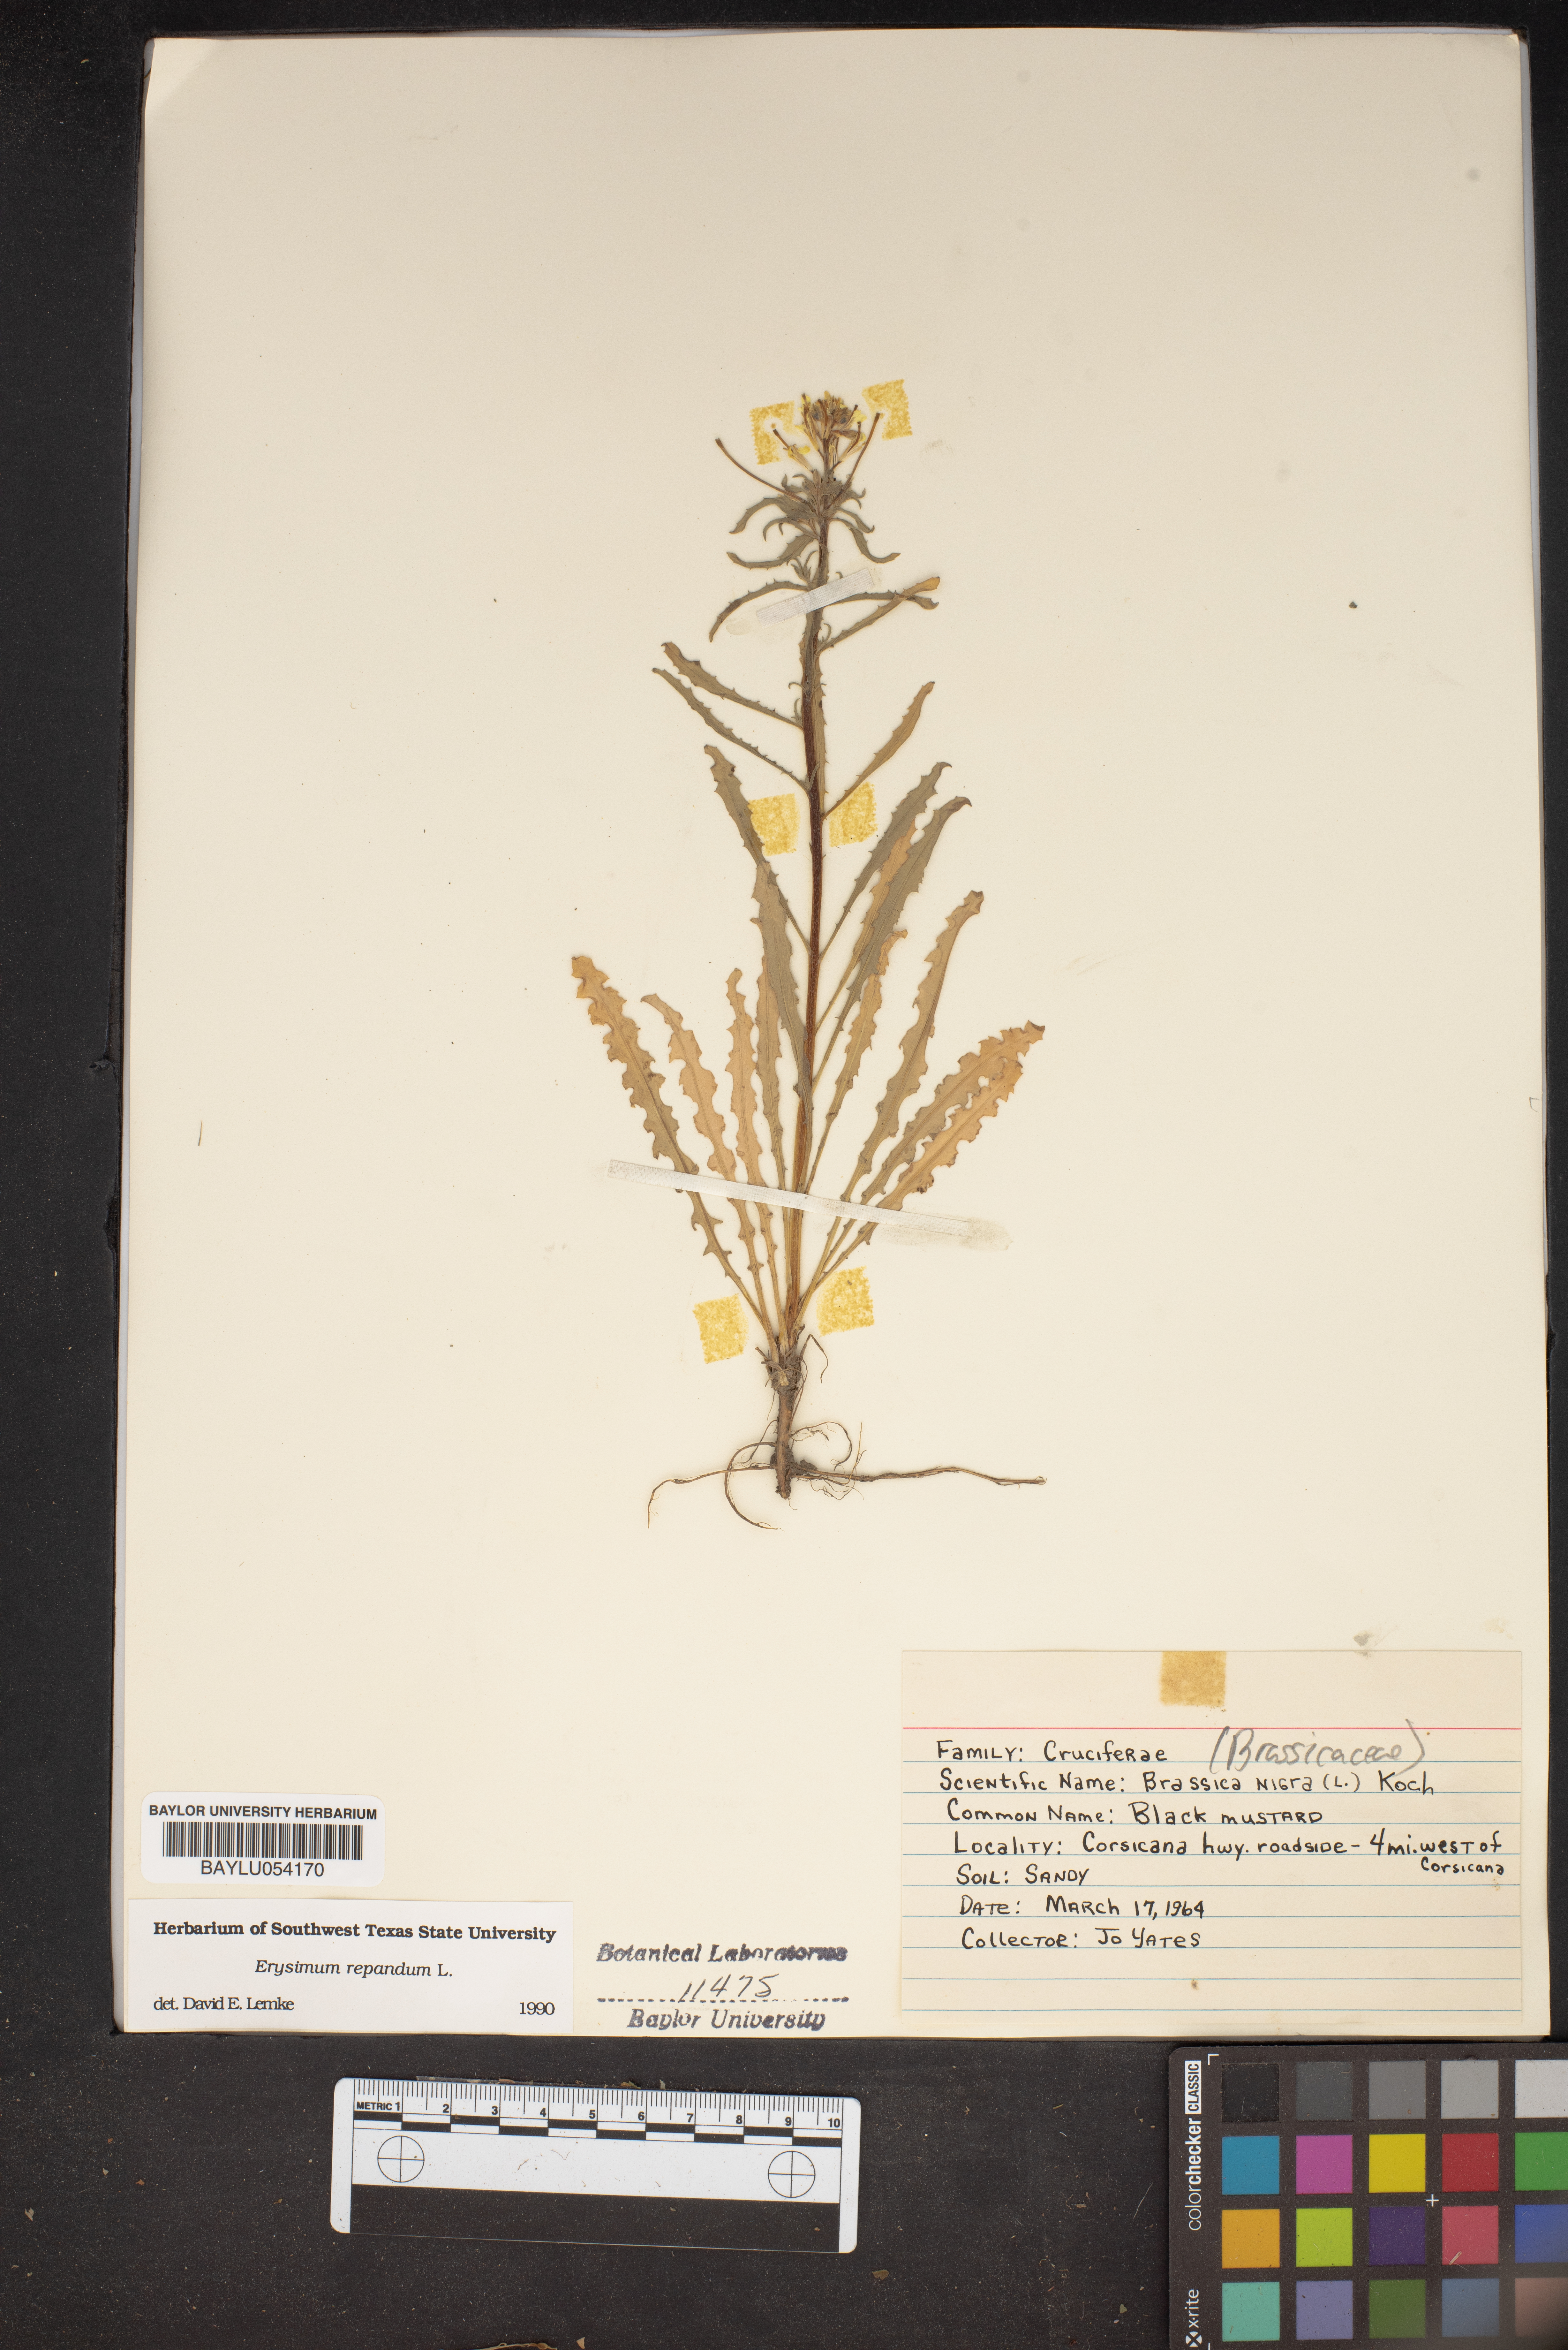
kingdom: Plantae
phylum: Tracheophyta
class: Magnoliopsida
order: Brassicales
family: Brassicaceae
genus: Erysimum
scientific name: Erysimum repandum
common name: Spreading wallflower
